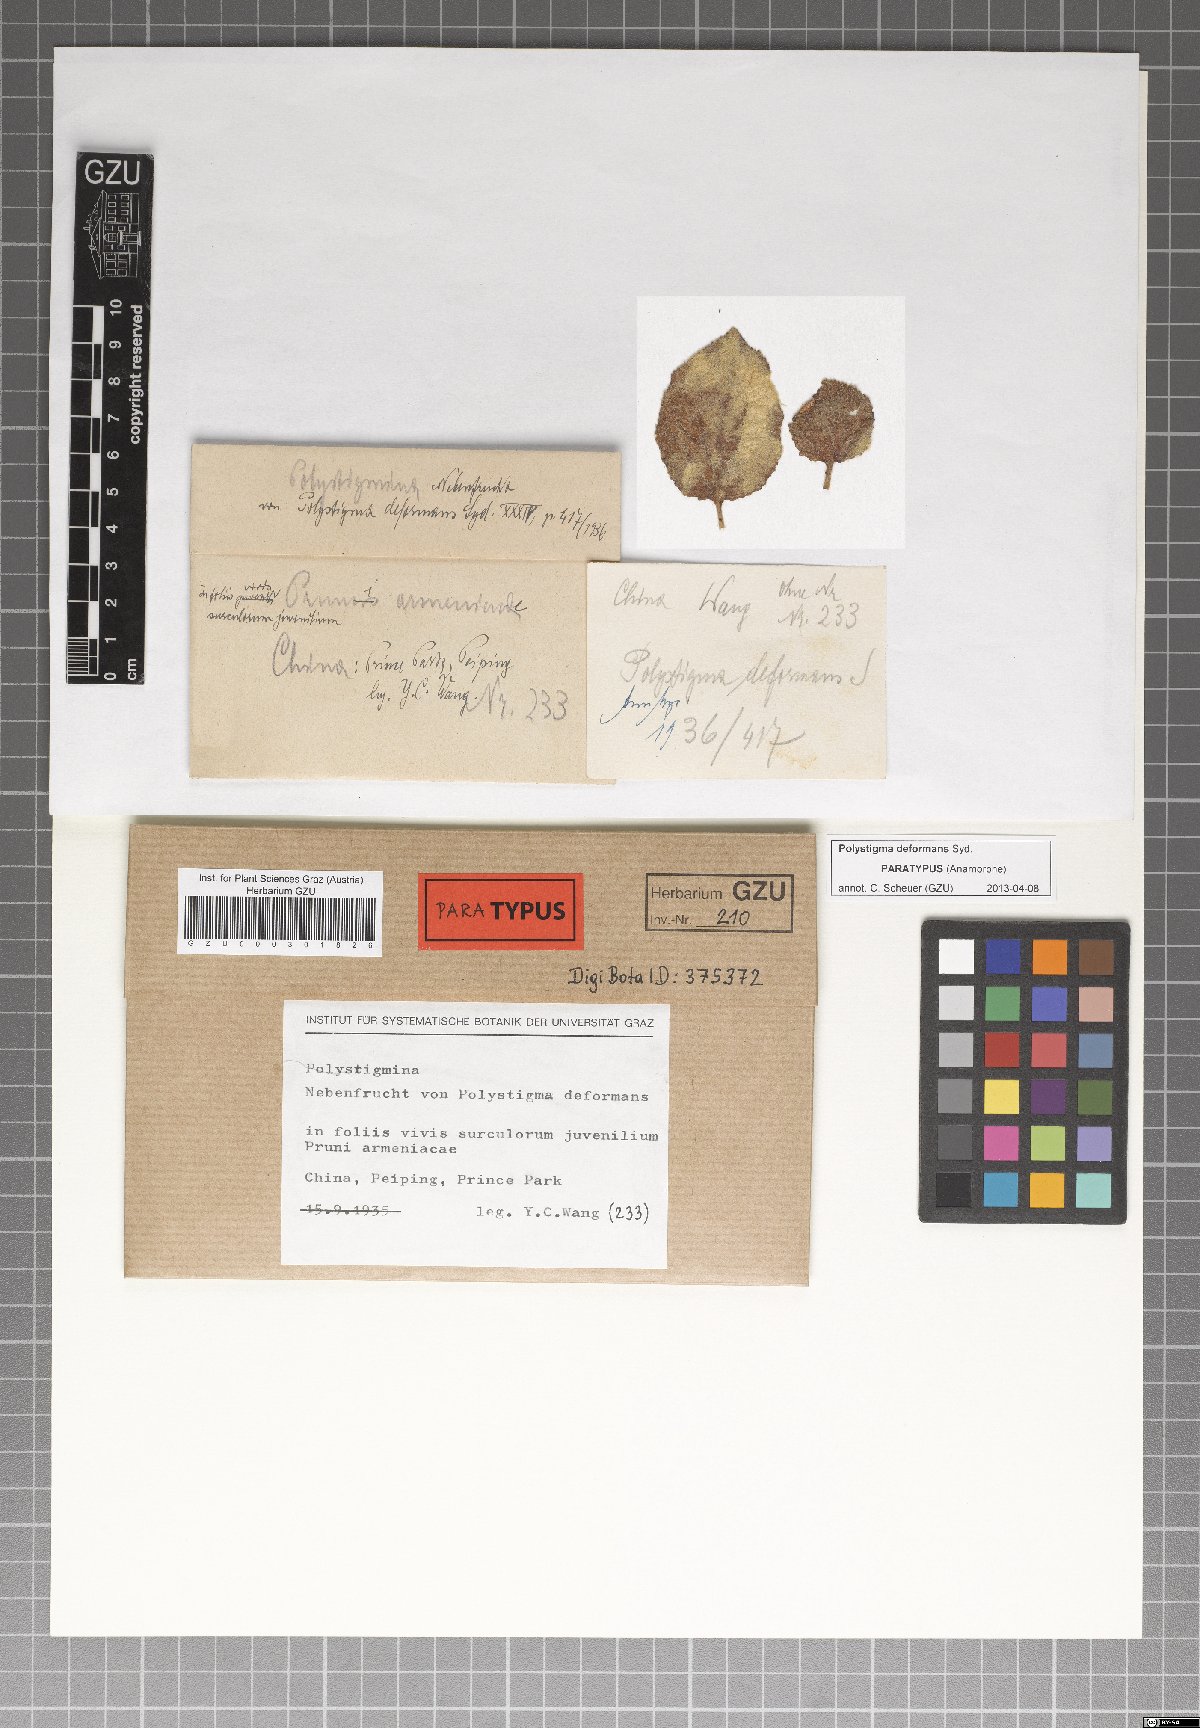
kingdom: Fungi
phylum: Ascomycota
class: Sordariomycetes
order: Phyllachorales
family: Phyllachoraceae
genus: Polystigma
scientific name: Polystigma deformans
